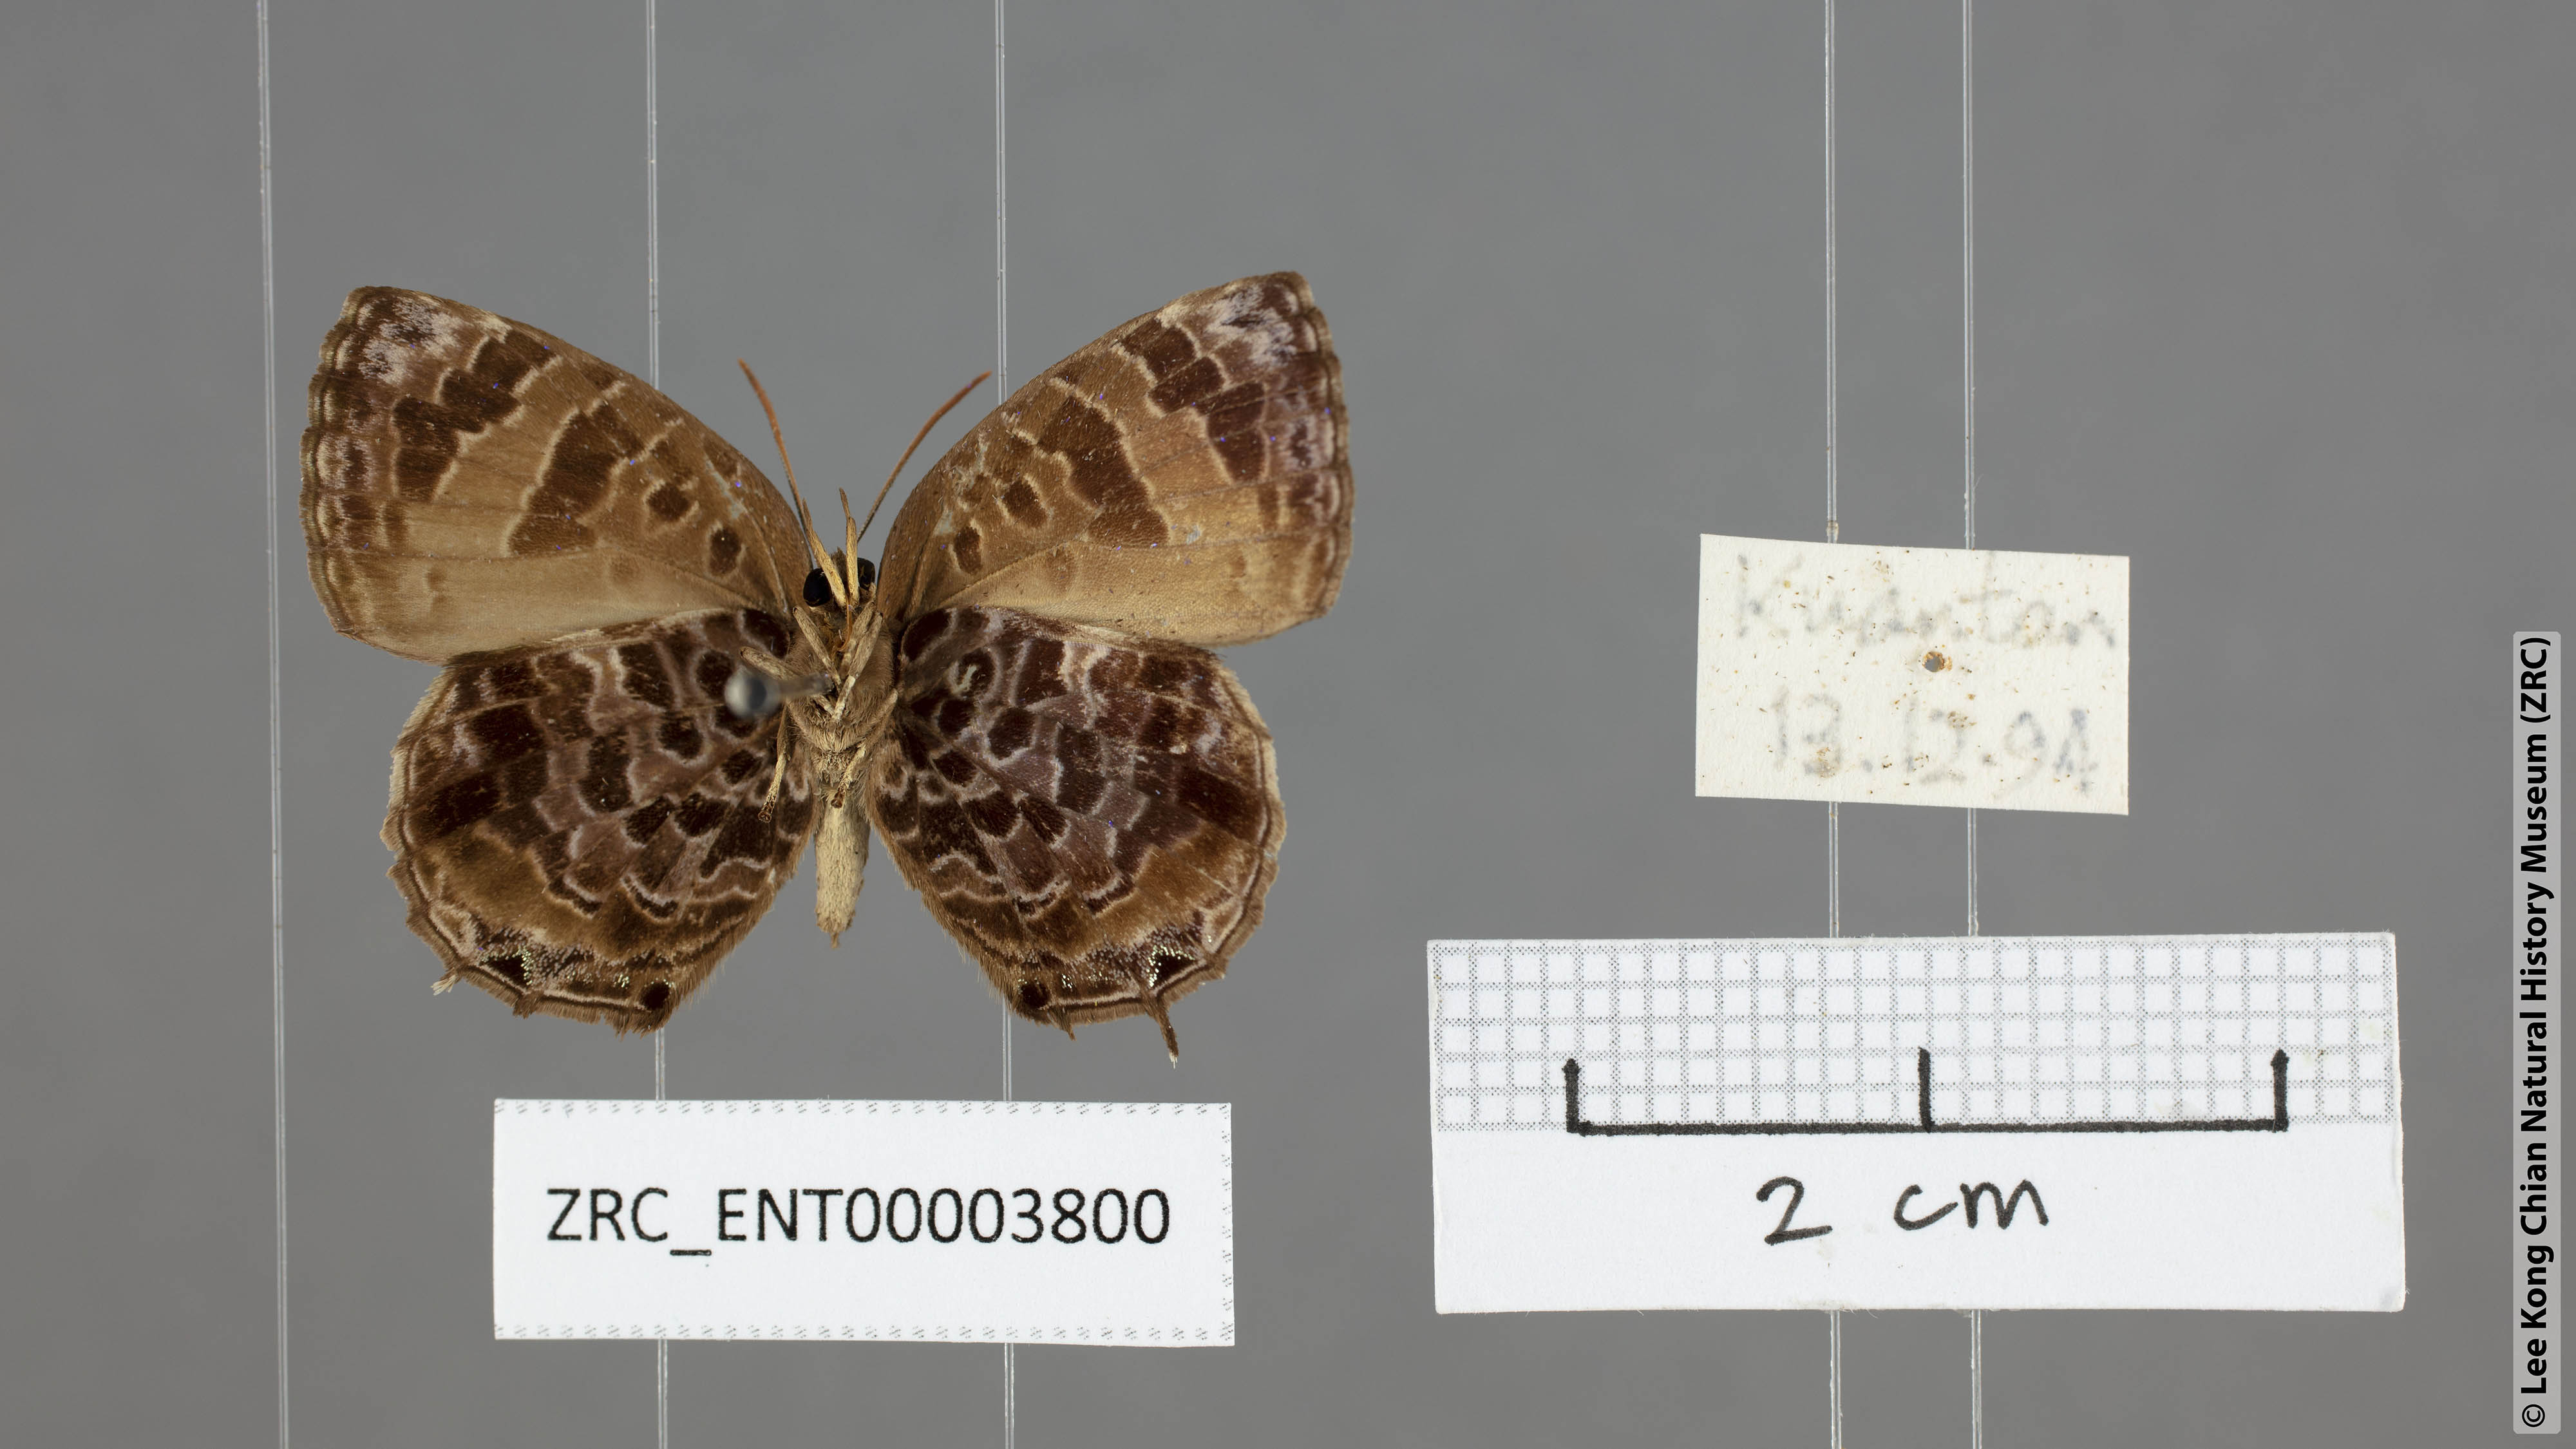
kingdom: Animalia
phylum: Arthropoda
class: Insecta
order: Lepidoptera
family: Lycaenidae
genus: Arhopala
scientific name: Arhopala abseus
